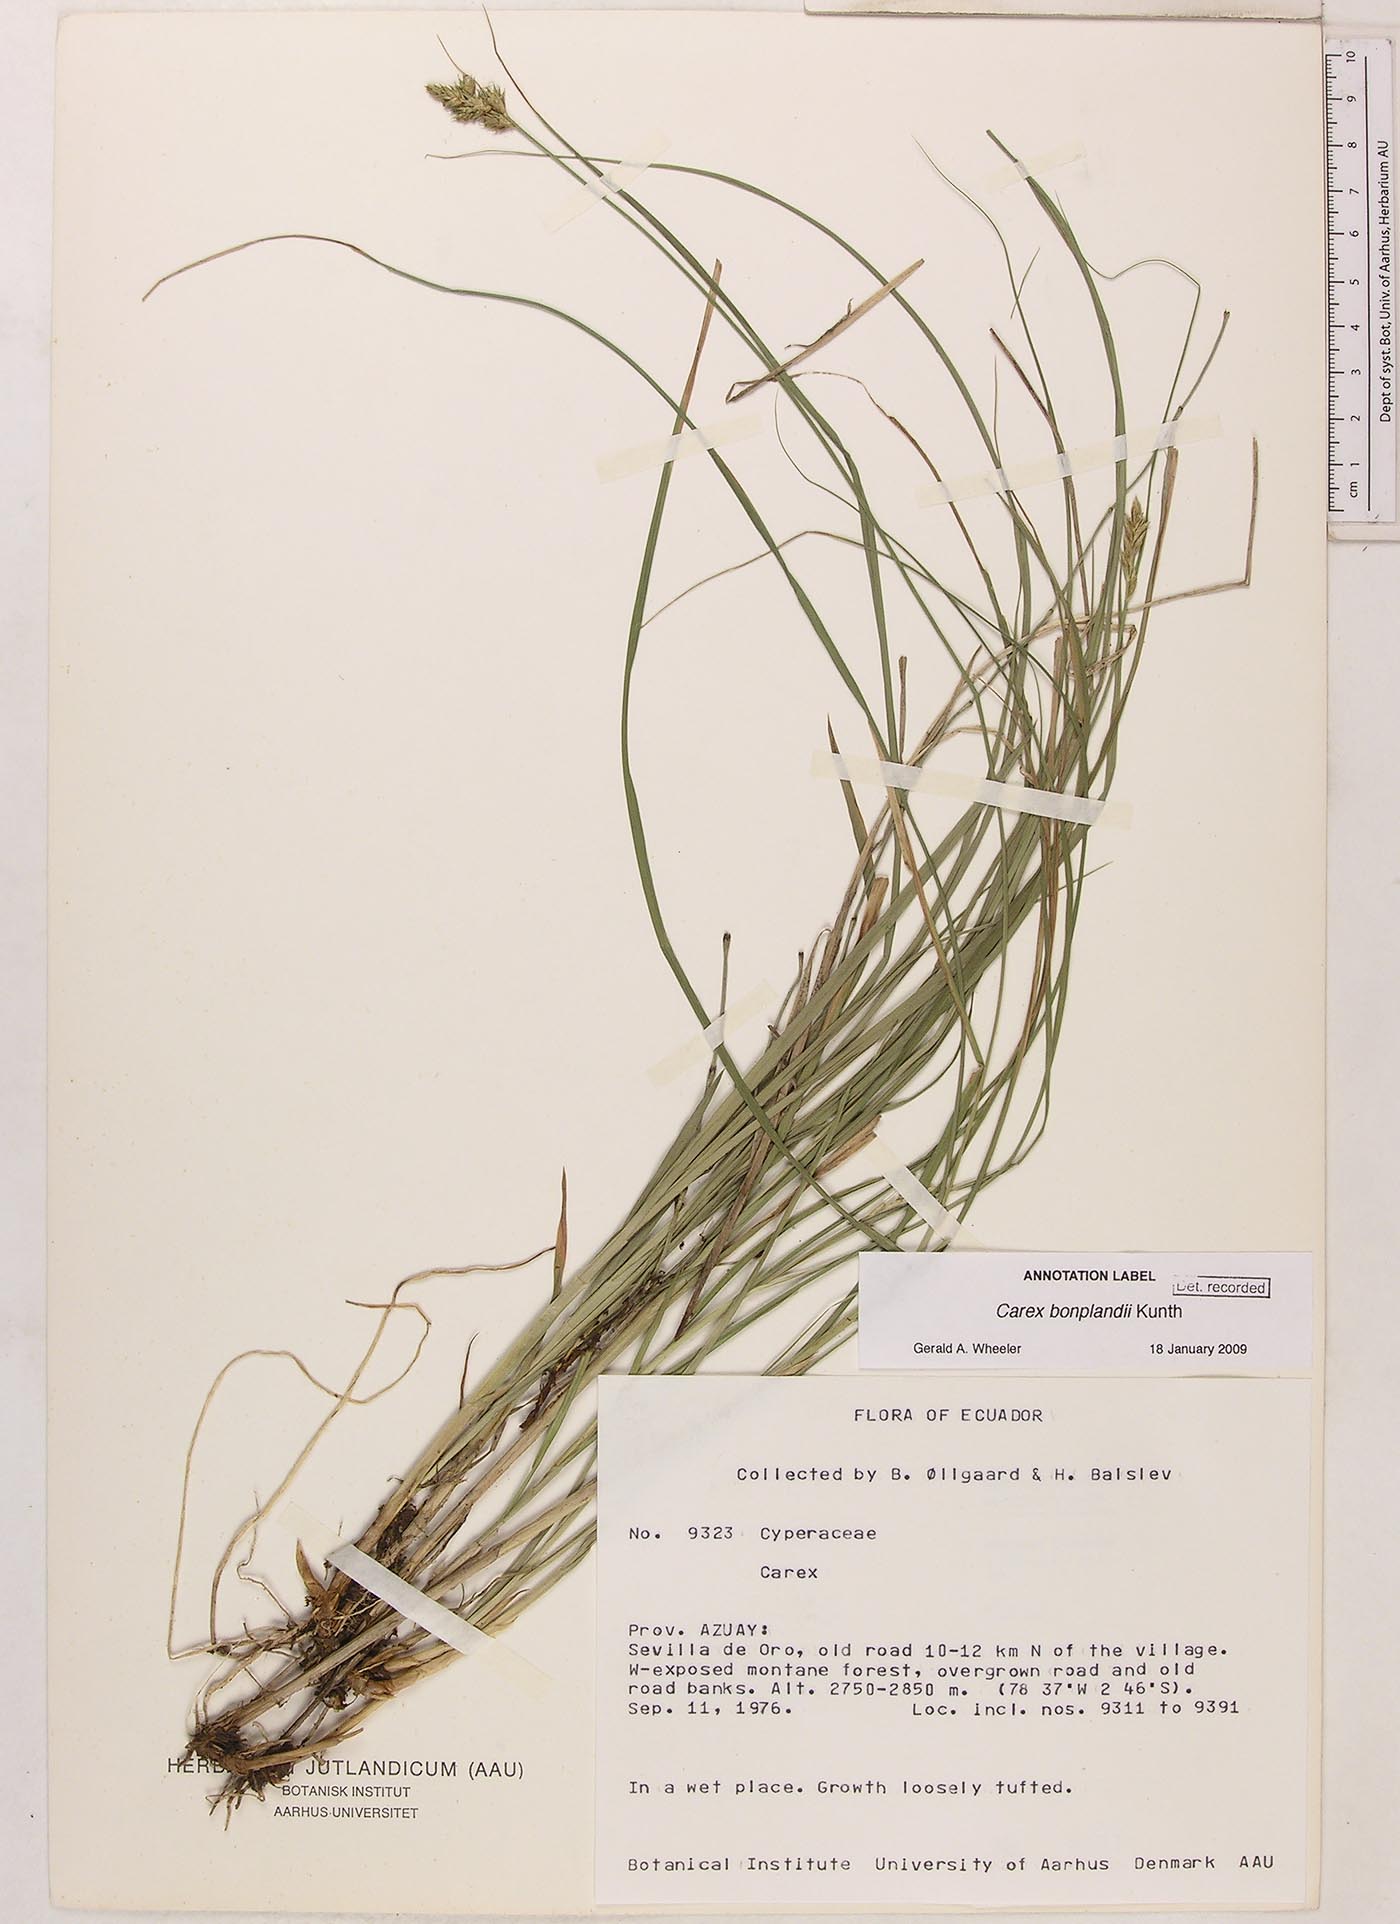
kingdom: Plantae
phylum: Tracheophyta
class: Liliopsida
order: Poales
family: Cyperaceae
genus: Carex
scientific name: Carex bonplandii
